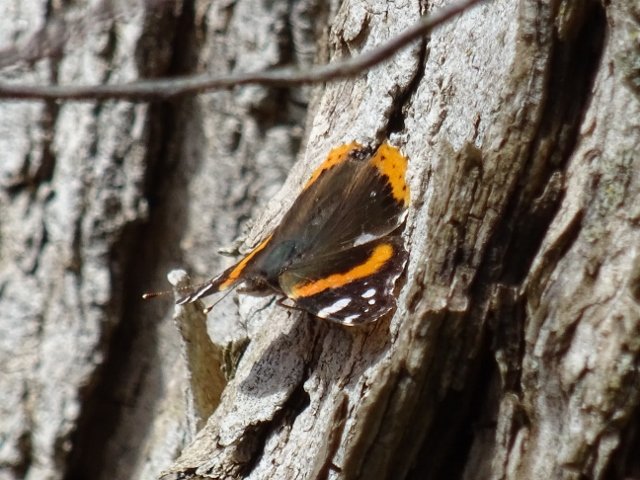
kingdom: Animalia
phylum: Arthropoda
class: Insecta
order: Lepidoptera
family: Nymphalidae
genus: Vanessa
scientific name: Vanessa atalanta
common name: Red Admiral
